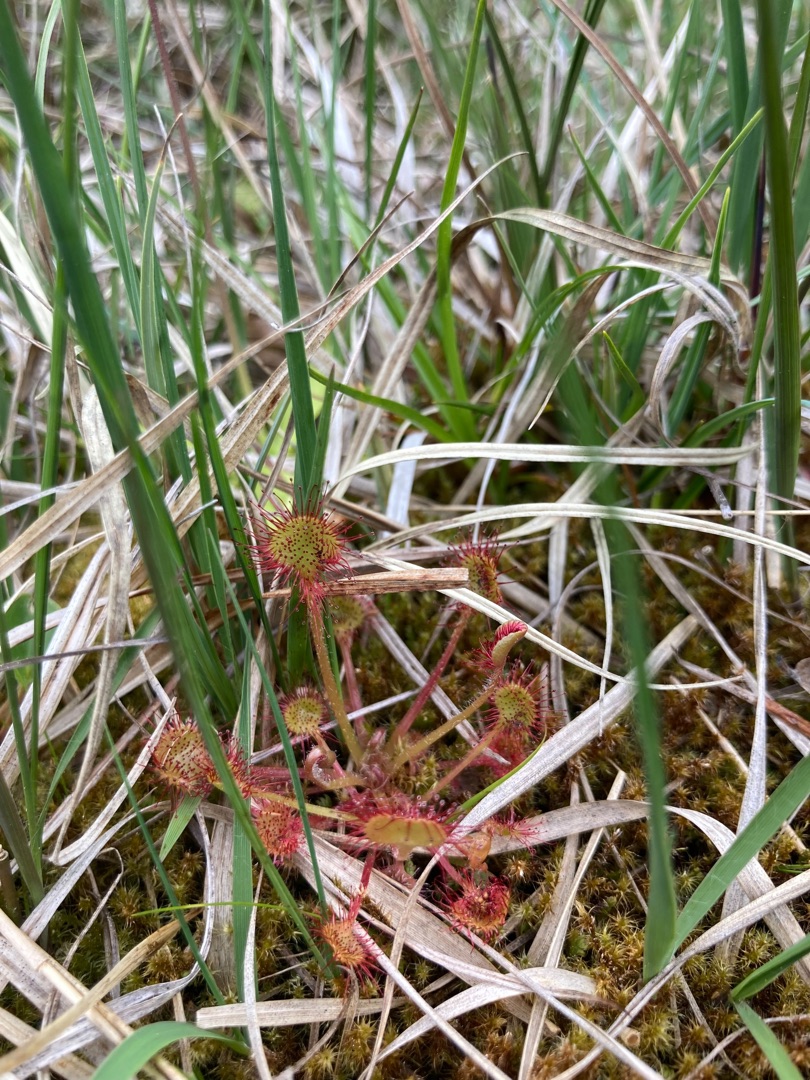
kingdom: Plantae
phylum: Tracheophyta
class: Magnoliopsida
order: Caryophyllales
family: Droseraceae
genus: Drosera
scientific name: Drosera rotundifolia
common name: Rundbladet soldug
